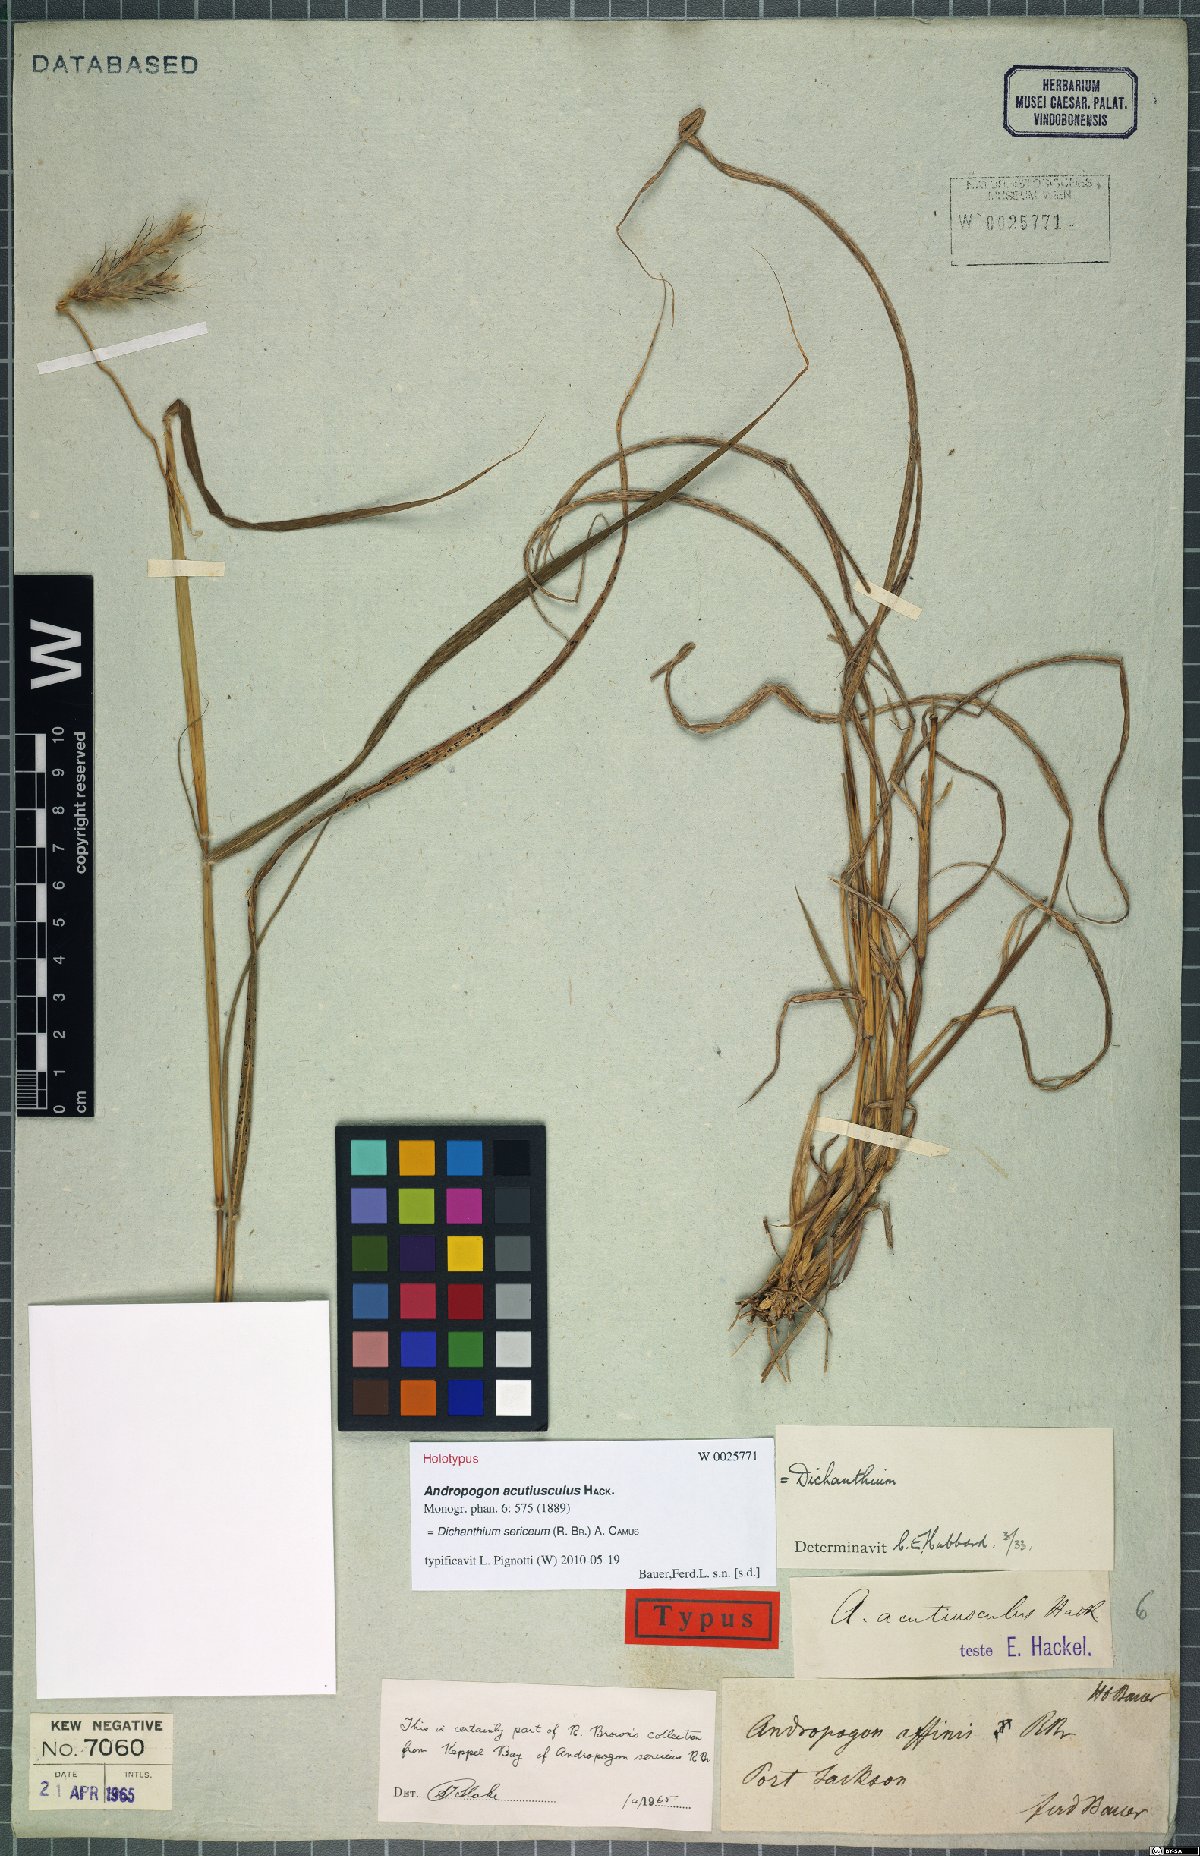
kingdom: Plantae
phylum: Tracheophyta
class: Liliopsida
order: Poales
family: Poaceae
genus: Dichanthium
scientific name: Dichanthium sericeum
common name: Silky bluestem
